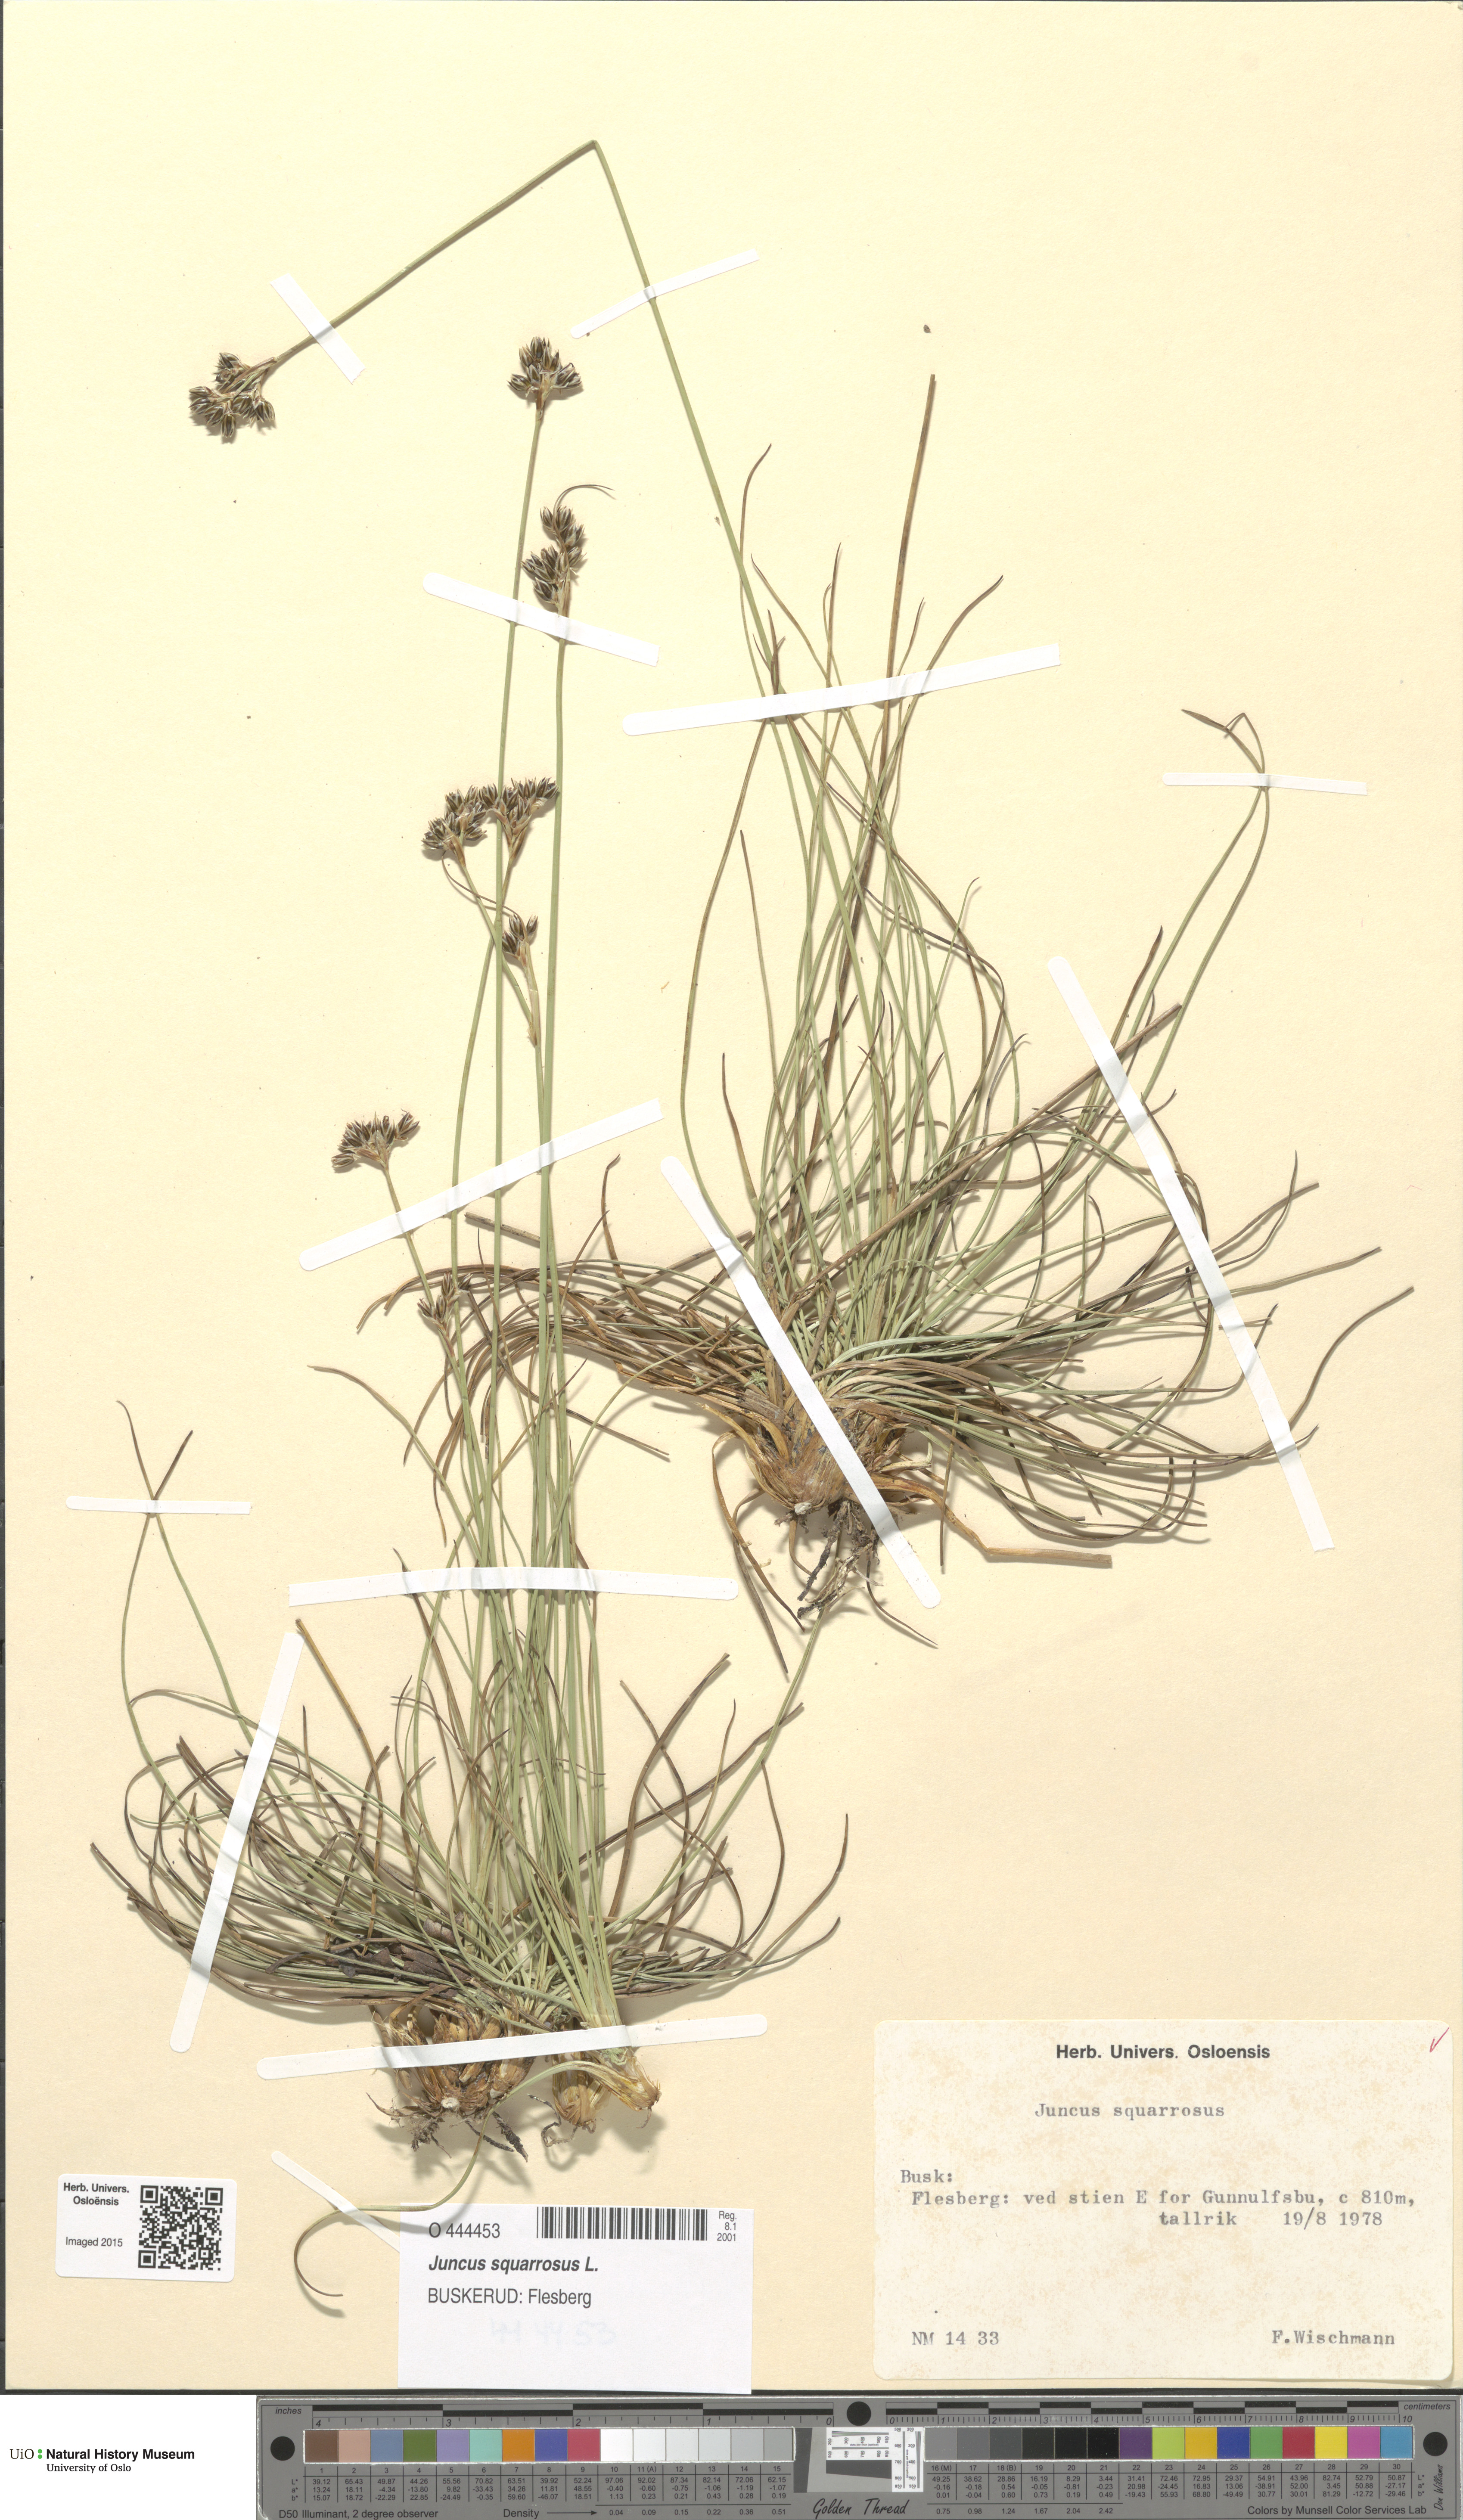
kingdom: Plantae
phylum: Tracheophyta
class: Liliopsida
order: Poales
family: Juncaceae
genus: Juncus
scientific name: Juncus squarrosus
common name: Heath rush
